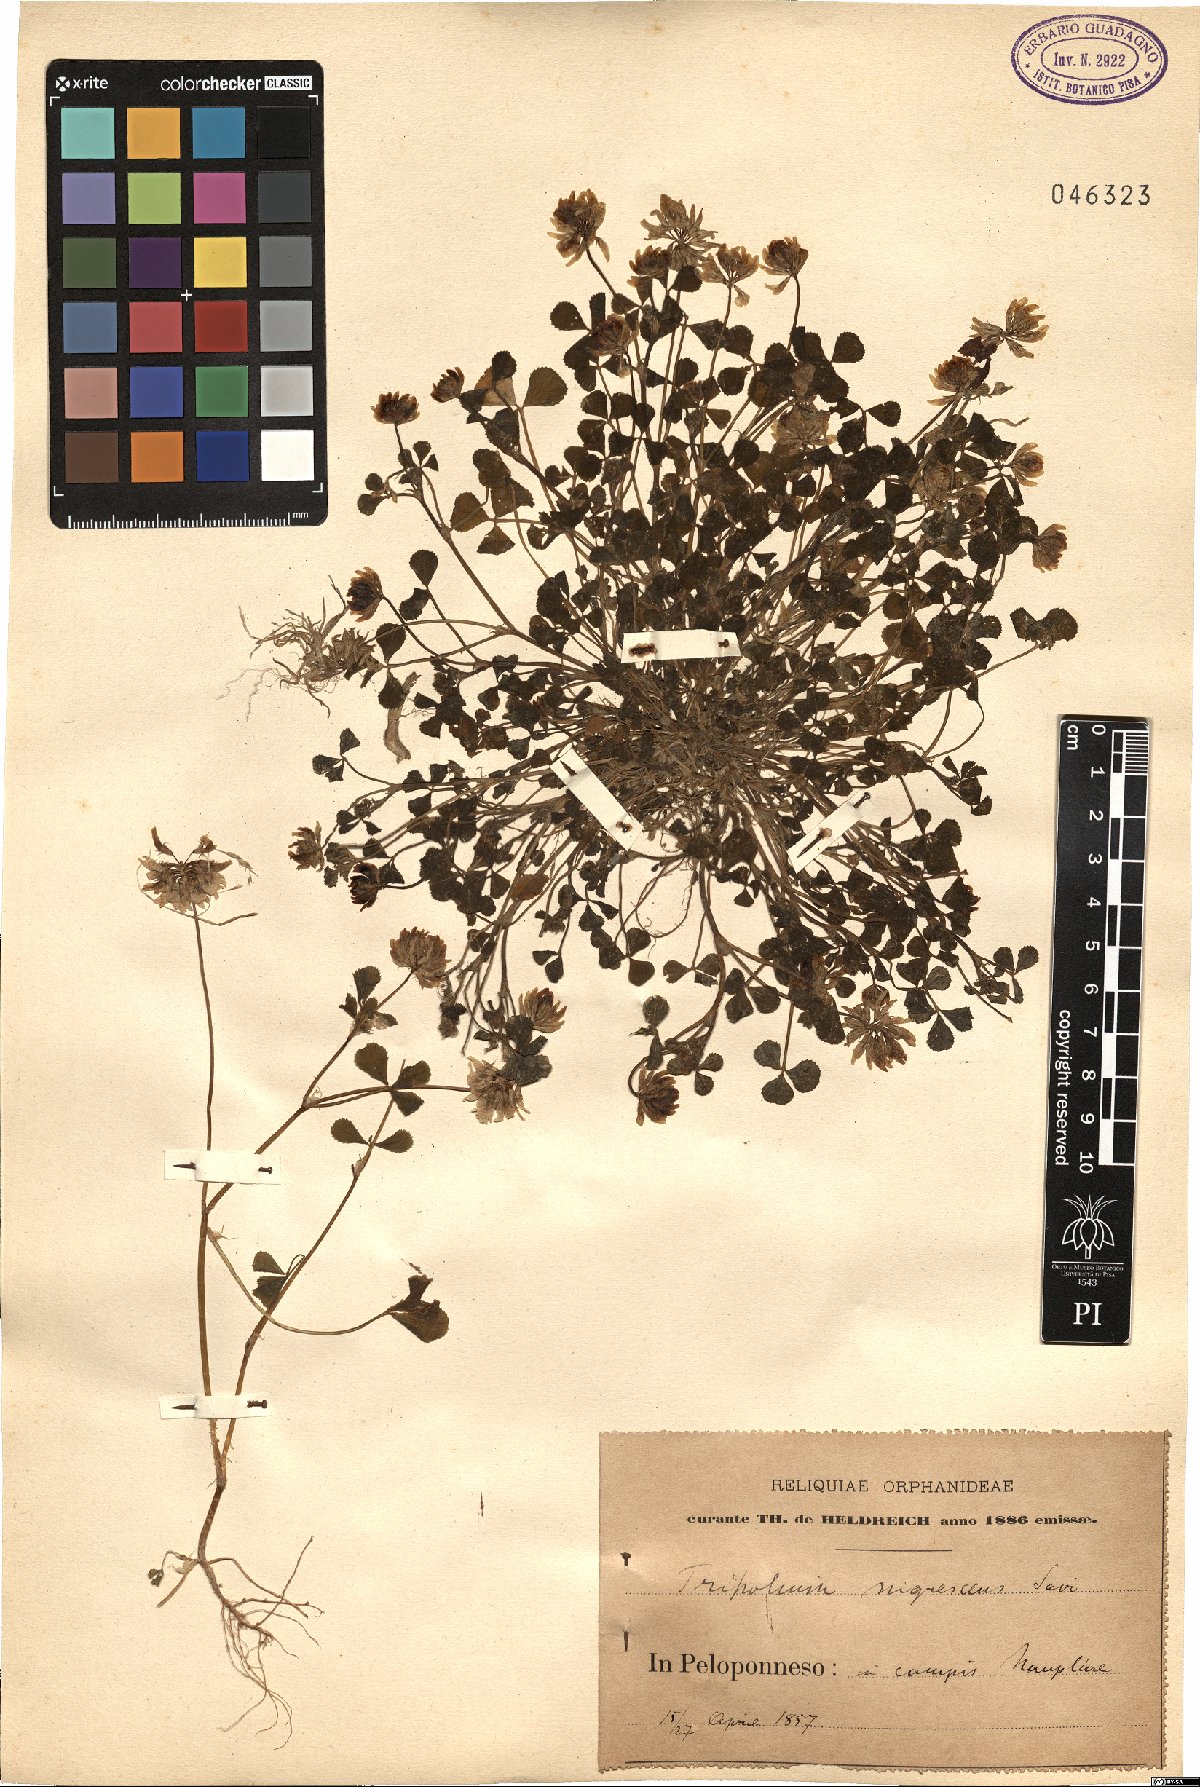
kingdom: Plantae
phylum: Tracheophyta
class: Magnoliopsida
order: Fabales
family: Fabaceae
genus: Trifolium
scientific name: Trifolium nigrescens
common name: Small white clover
